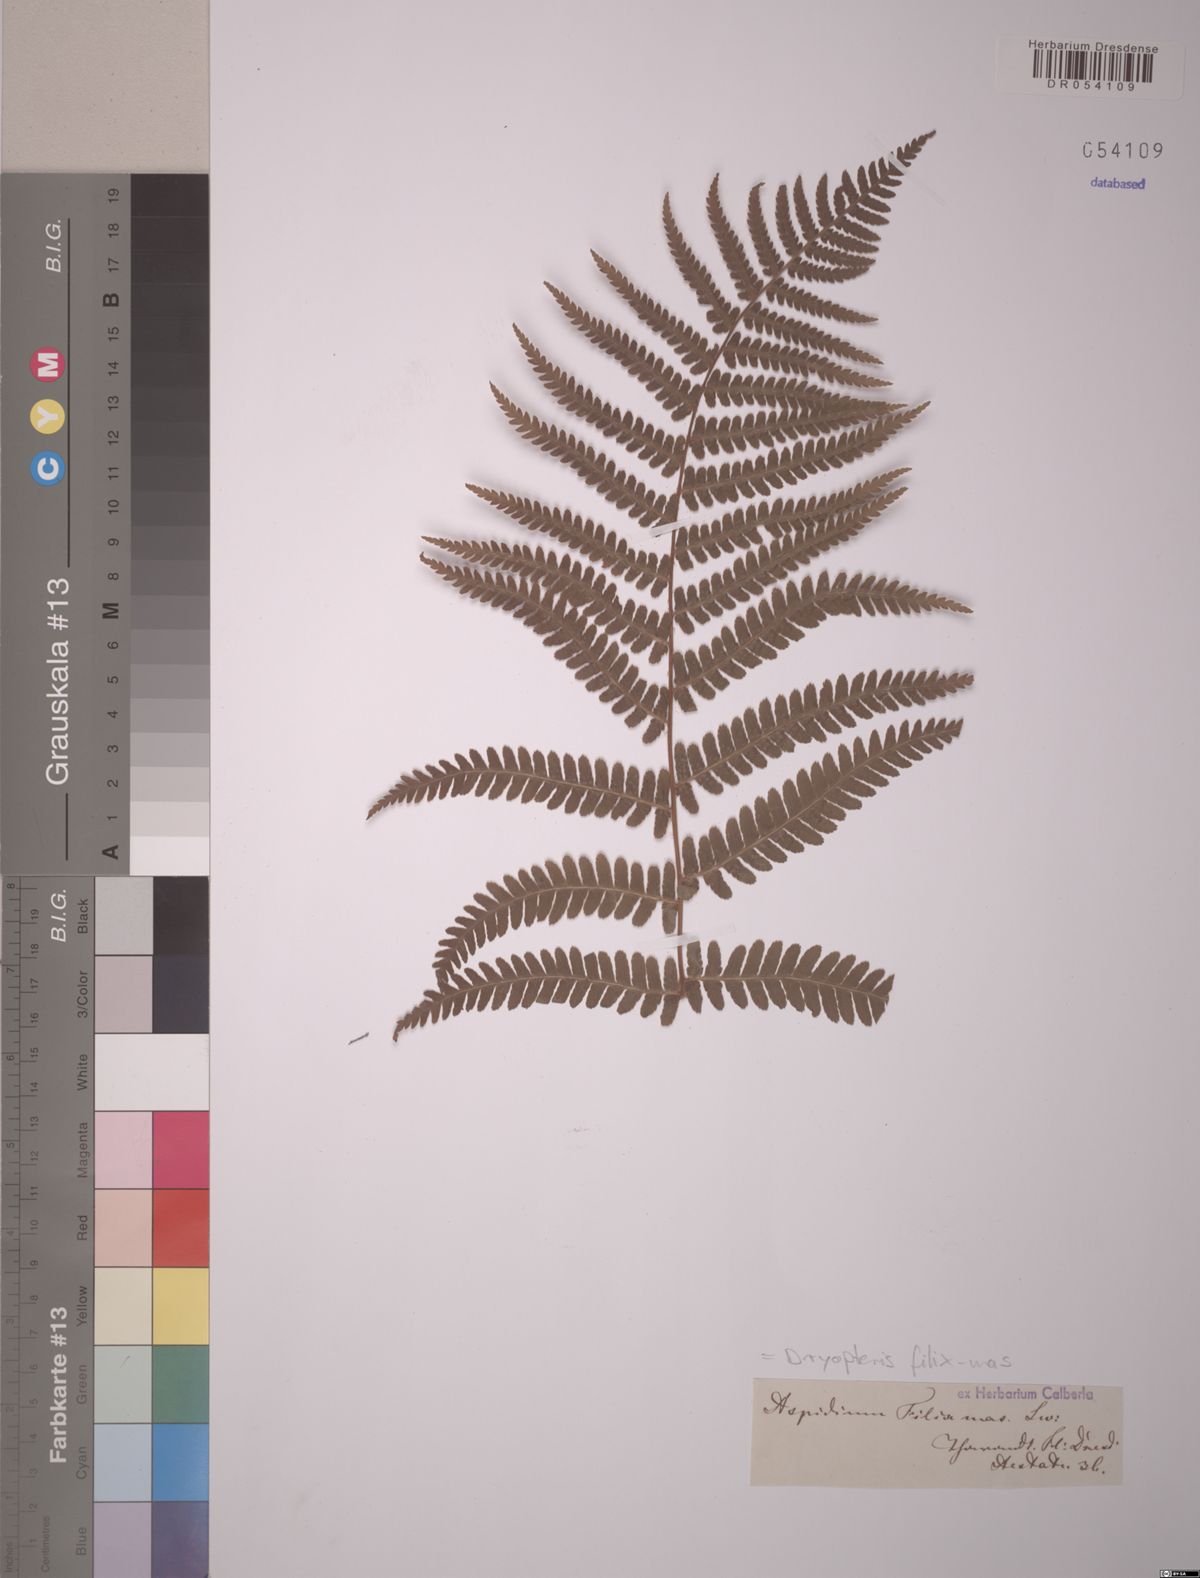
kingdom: Plantae
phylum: Tracheophyta
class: Polypodiopsida
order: Polypodiales
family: Dryopteridaceae
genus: Dryopteris
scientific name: Dryopteris filix-mas
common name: Male fern
